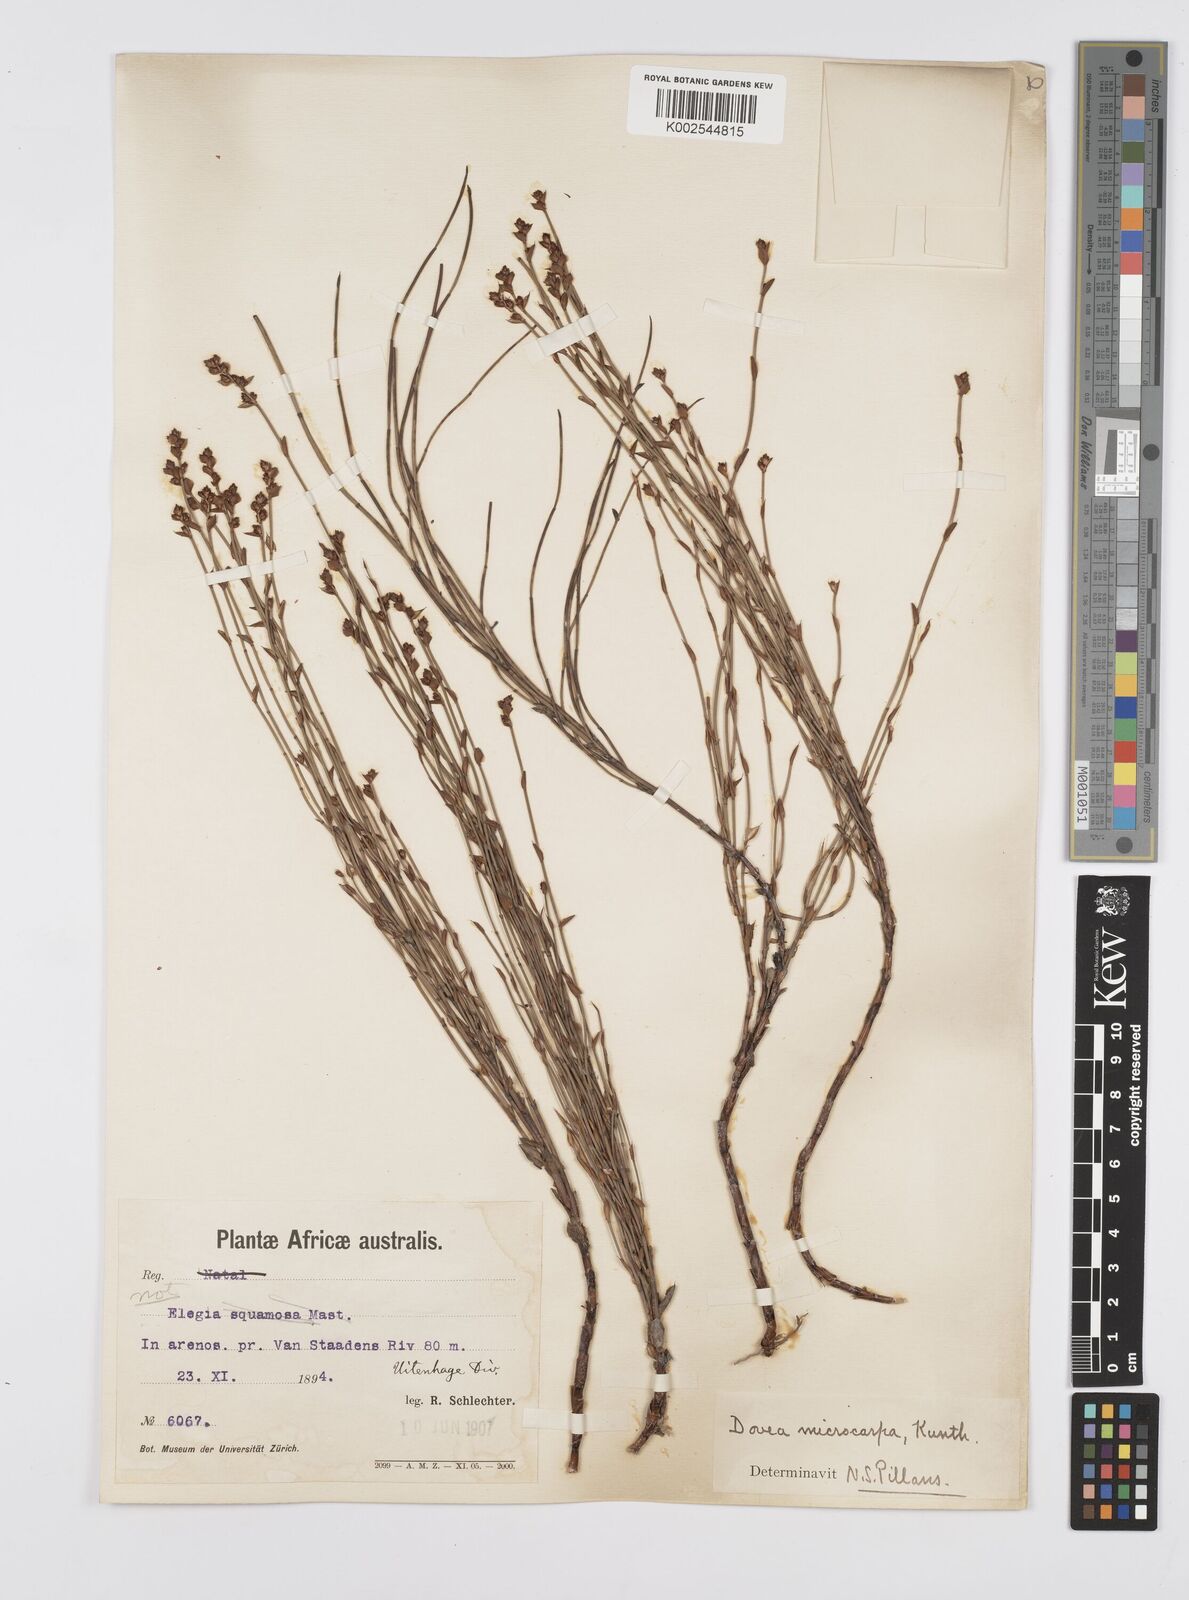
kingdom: Plantae
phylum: Tracheophyta
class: Liliopsida
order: Poales
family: Restionaceae
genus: Elegia
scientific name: Elegia microcarpa
